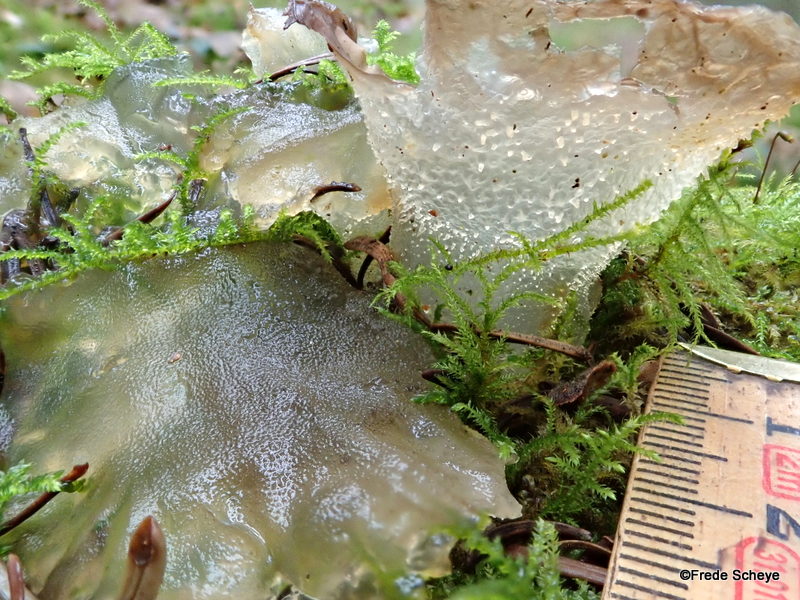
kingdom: Fungi
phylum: Basidiomycota
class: Agaricomycetes
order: Auriculariales
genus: Pseudohydnum
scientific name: Pseudohydnum gelatinosum
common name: bævretand
